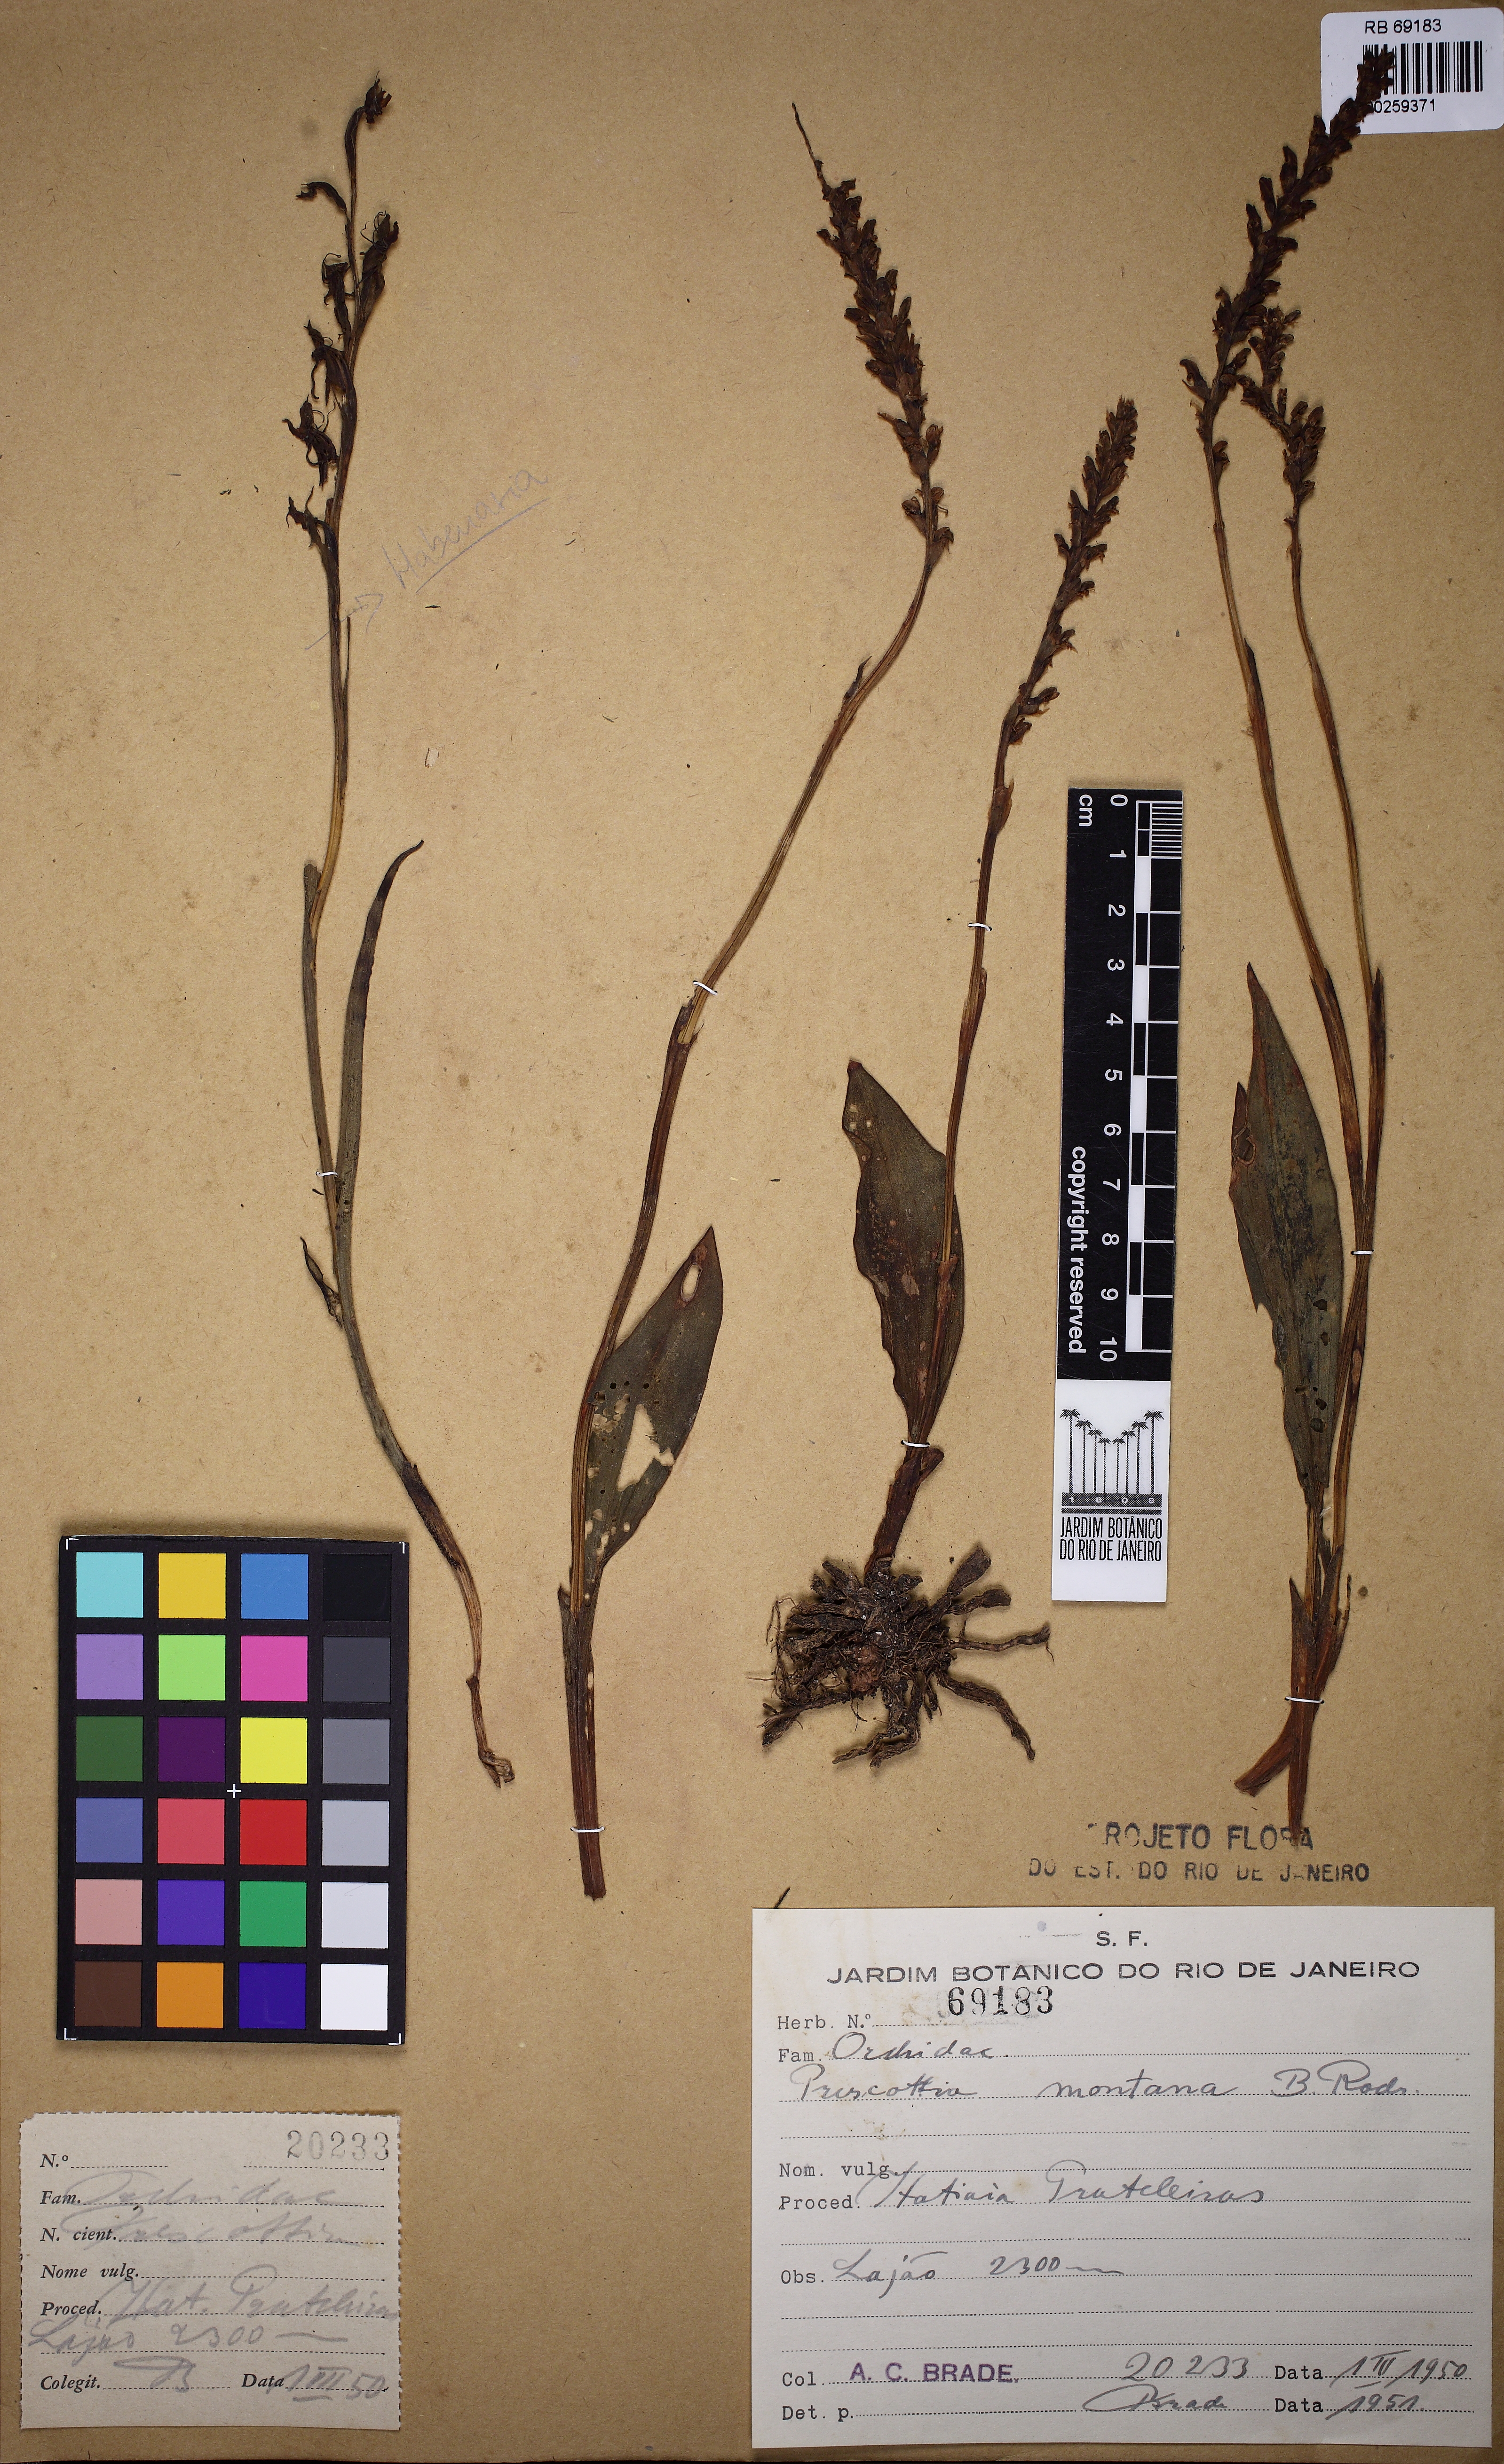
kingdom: Plantae
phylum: Tracheophyta
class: Liliopsida
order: Asparagales
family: Orchidaceae
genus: Prescottia
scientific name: Prescottia montana
